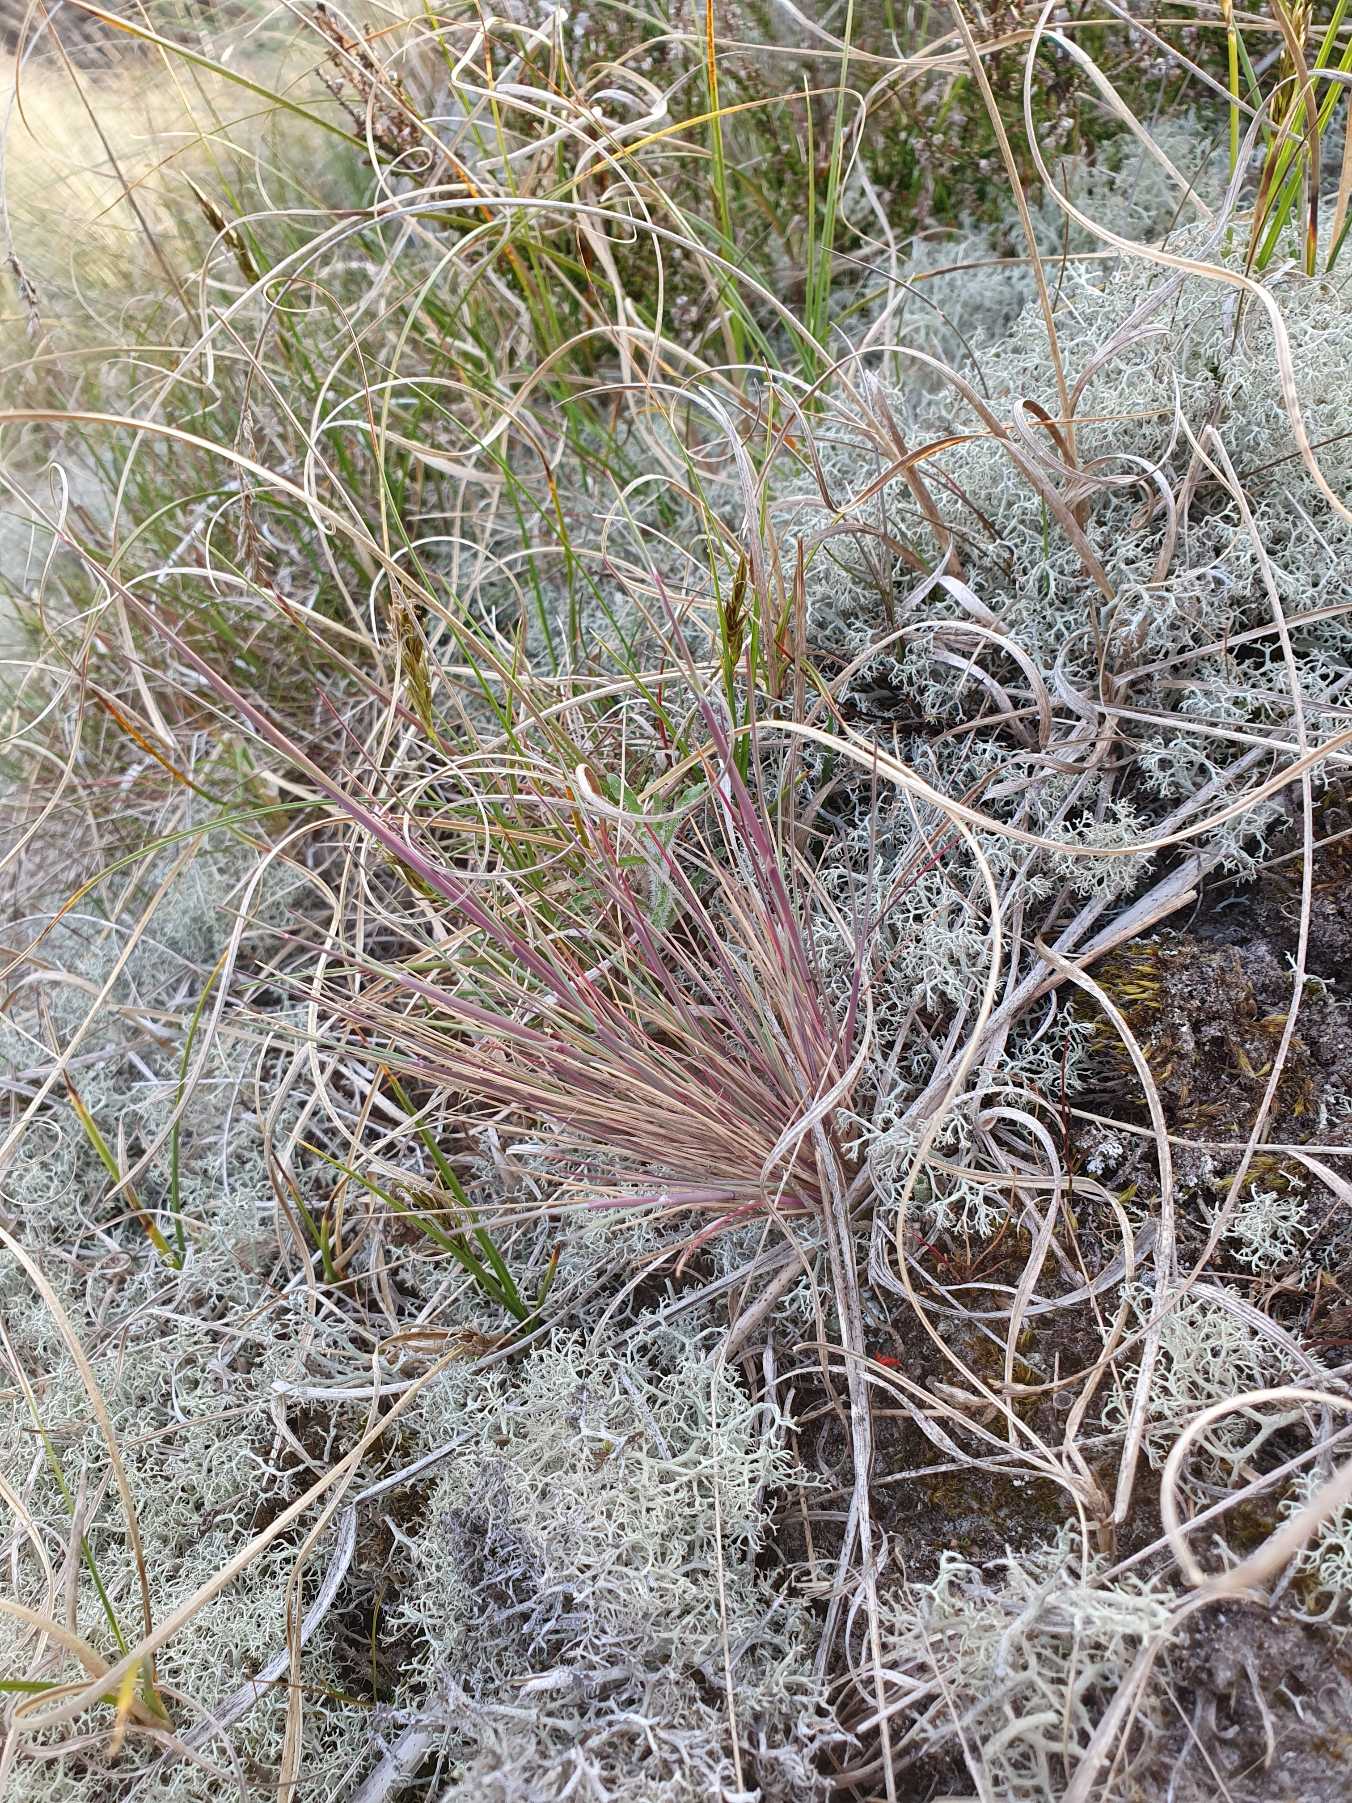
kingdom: Plantae
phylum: Tracheophyta
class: Liliopsida
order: Poales
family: Poaceae
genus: Corynephorus
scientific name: Corynephorus canescens
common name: Sandskæg
